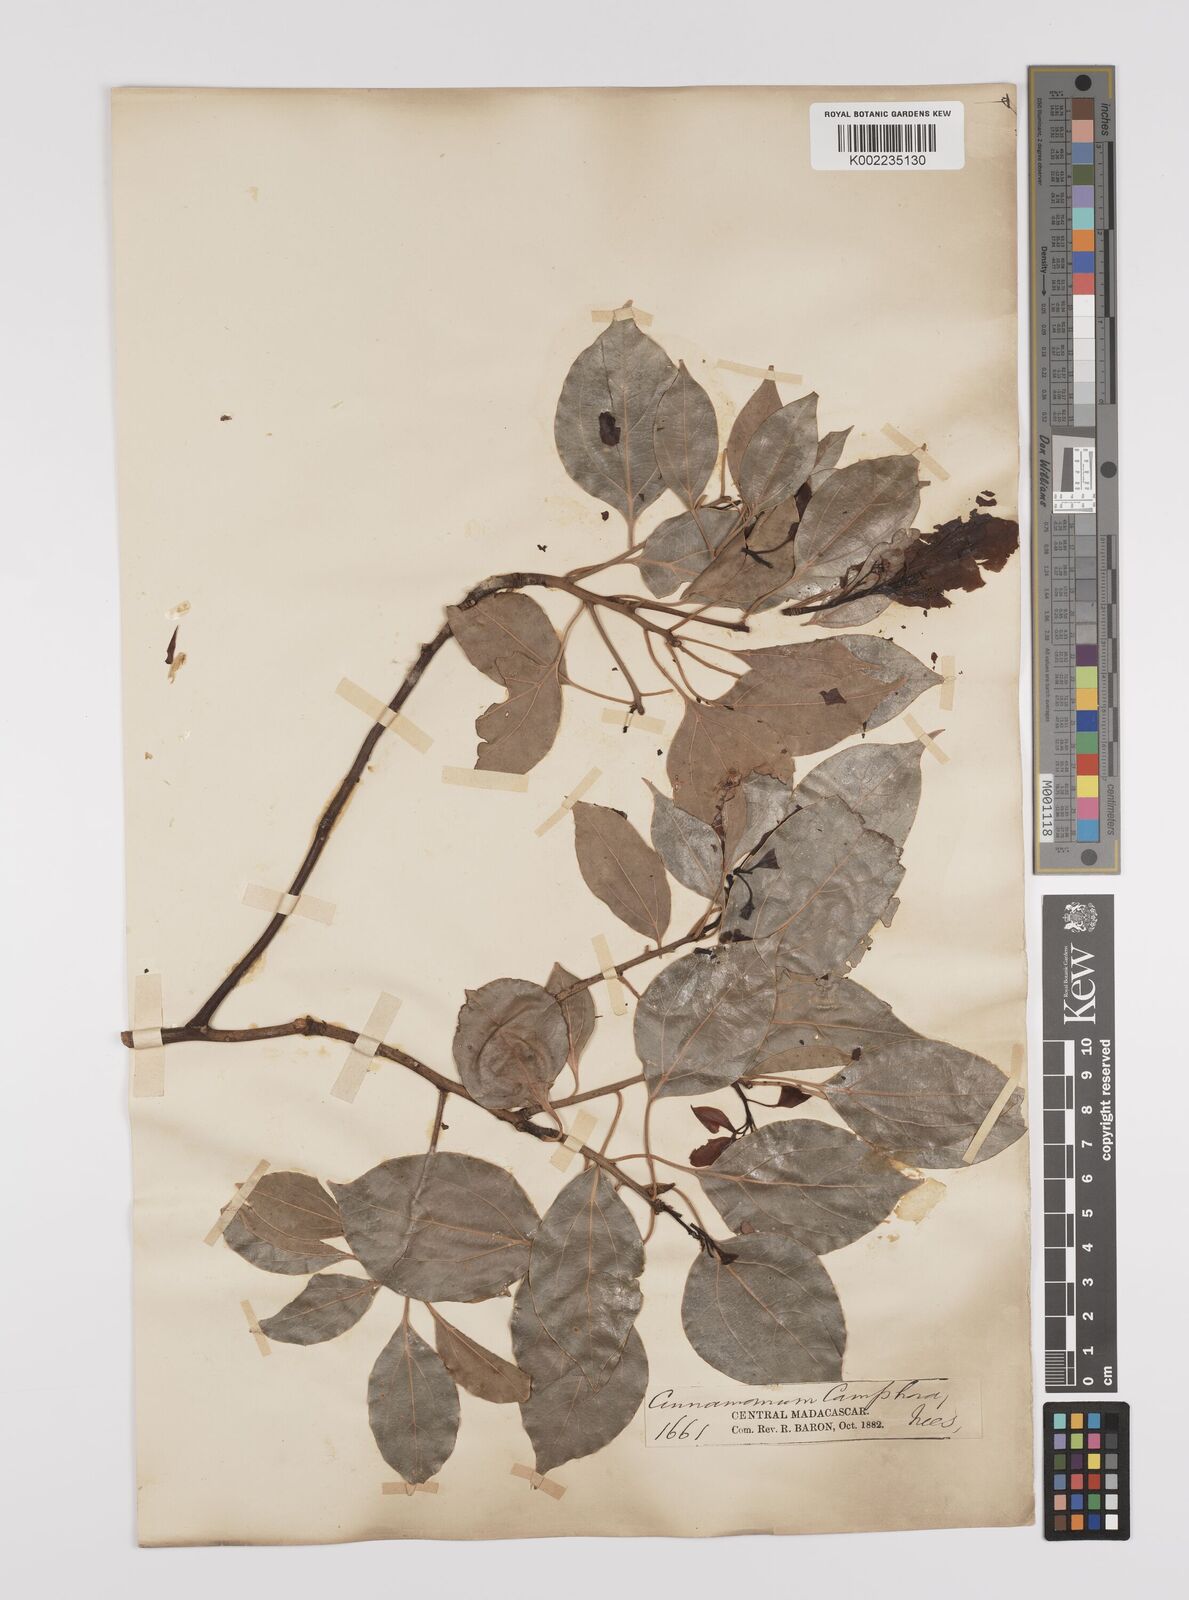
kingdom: Plantae
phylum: Tracheophyta
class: Magnoliopsida
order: Laurales
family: Lauraceae
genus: Cinnamomum
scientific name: Cinnamomum camphora
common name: Camphortree
